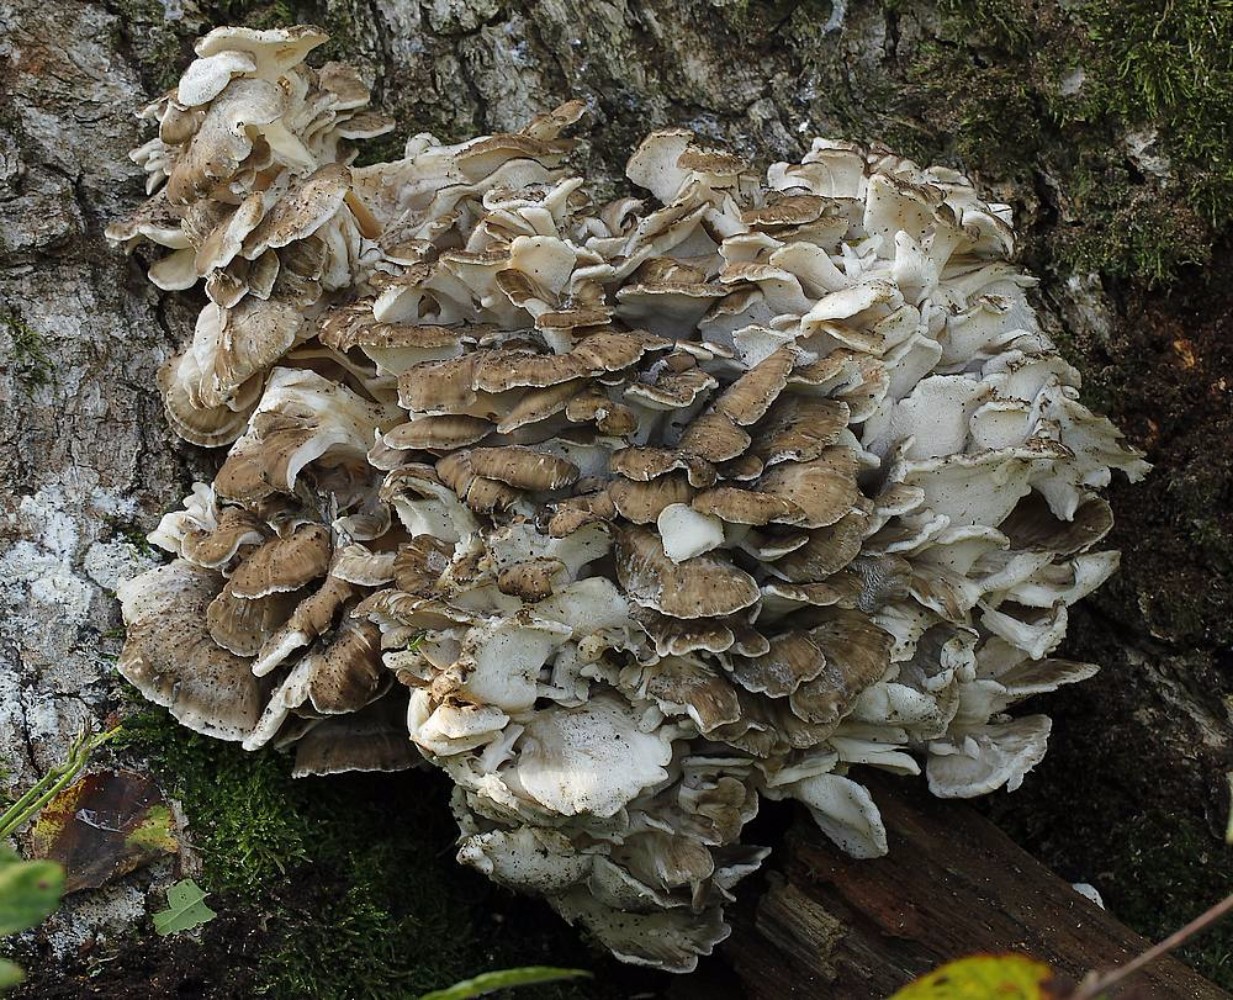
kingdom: Fungi
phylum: Basidiomycota
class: Agaricomycetes
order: Polyporales
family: Grifolaceae
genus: Grifola
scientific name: Grifola frondosa
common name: tueporesvamp
